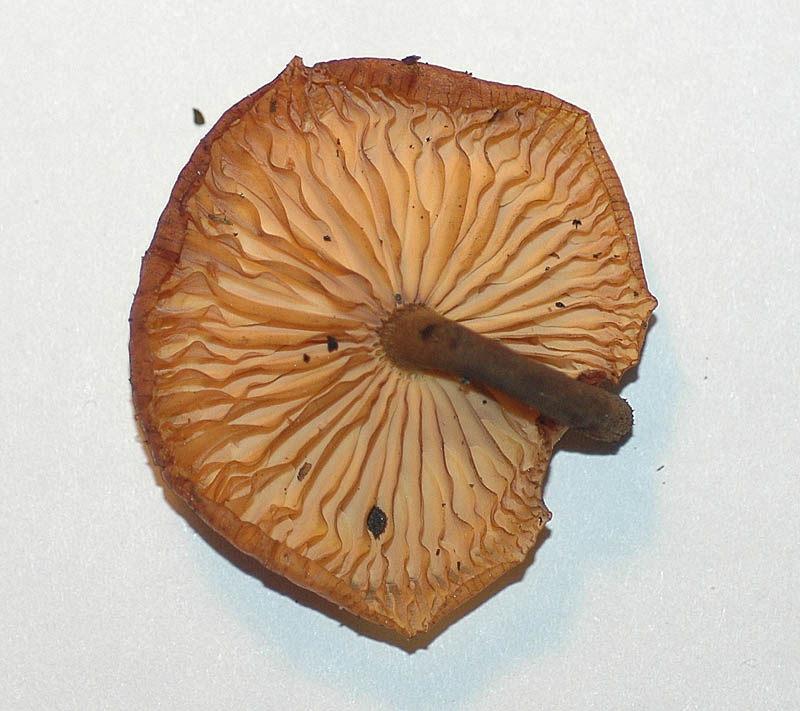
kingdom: Fungi
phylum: Basidiomycota
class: Agaricomycetes
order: Agaricales
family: Physalacriaceae
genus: Flammulina
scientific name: Flammulina elastica
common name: pile-fløjlsfod
